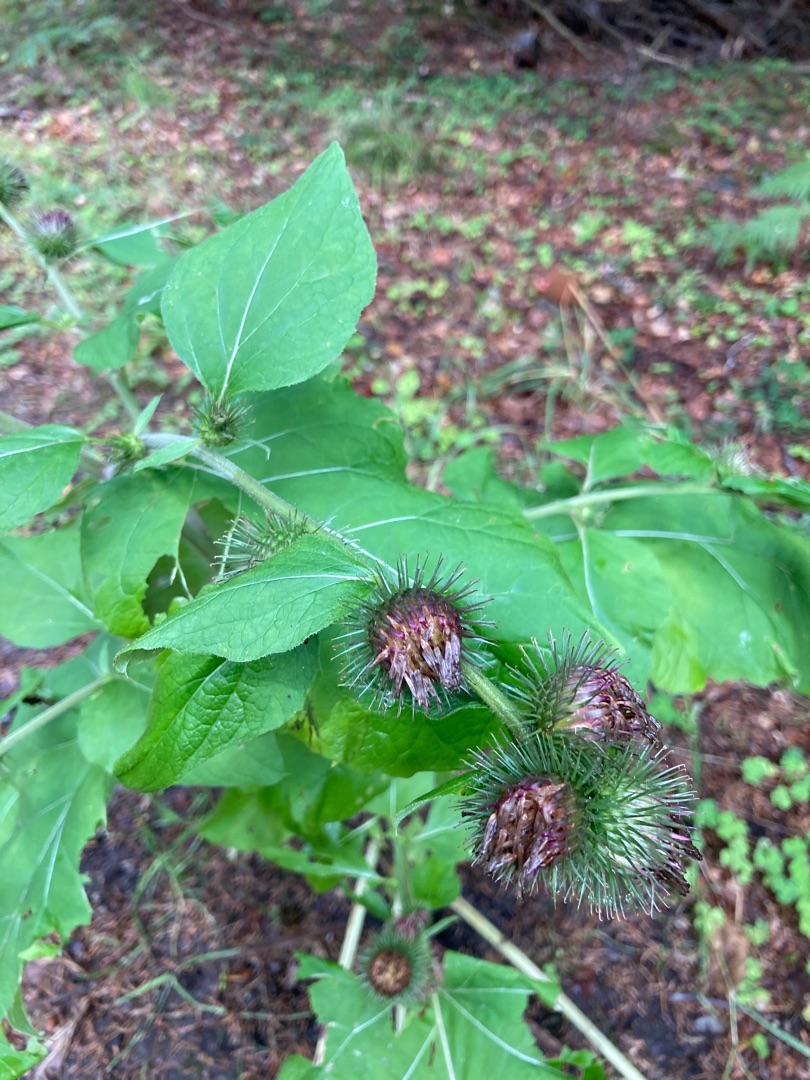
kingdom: Plantae
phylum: Tracheophyta
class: Magnoliopsida
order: Asterales
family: Asteraceae
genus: Arctium
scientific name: Arctium lappa
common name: Glat burre
